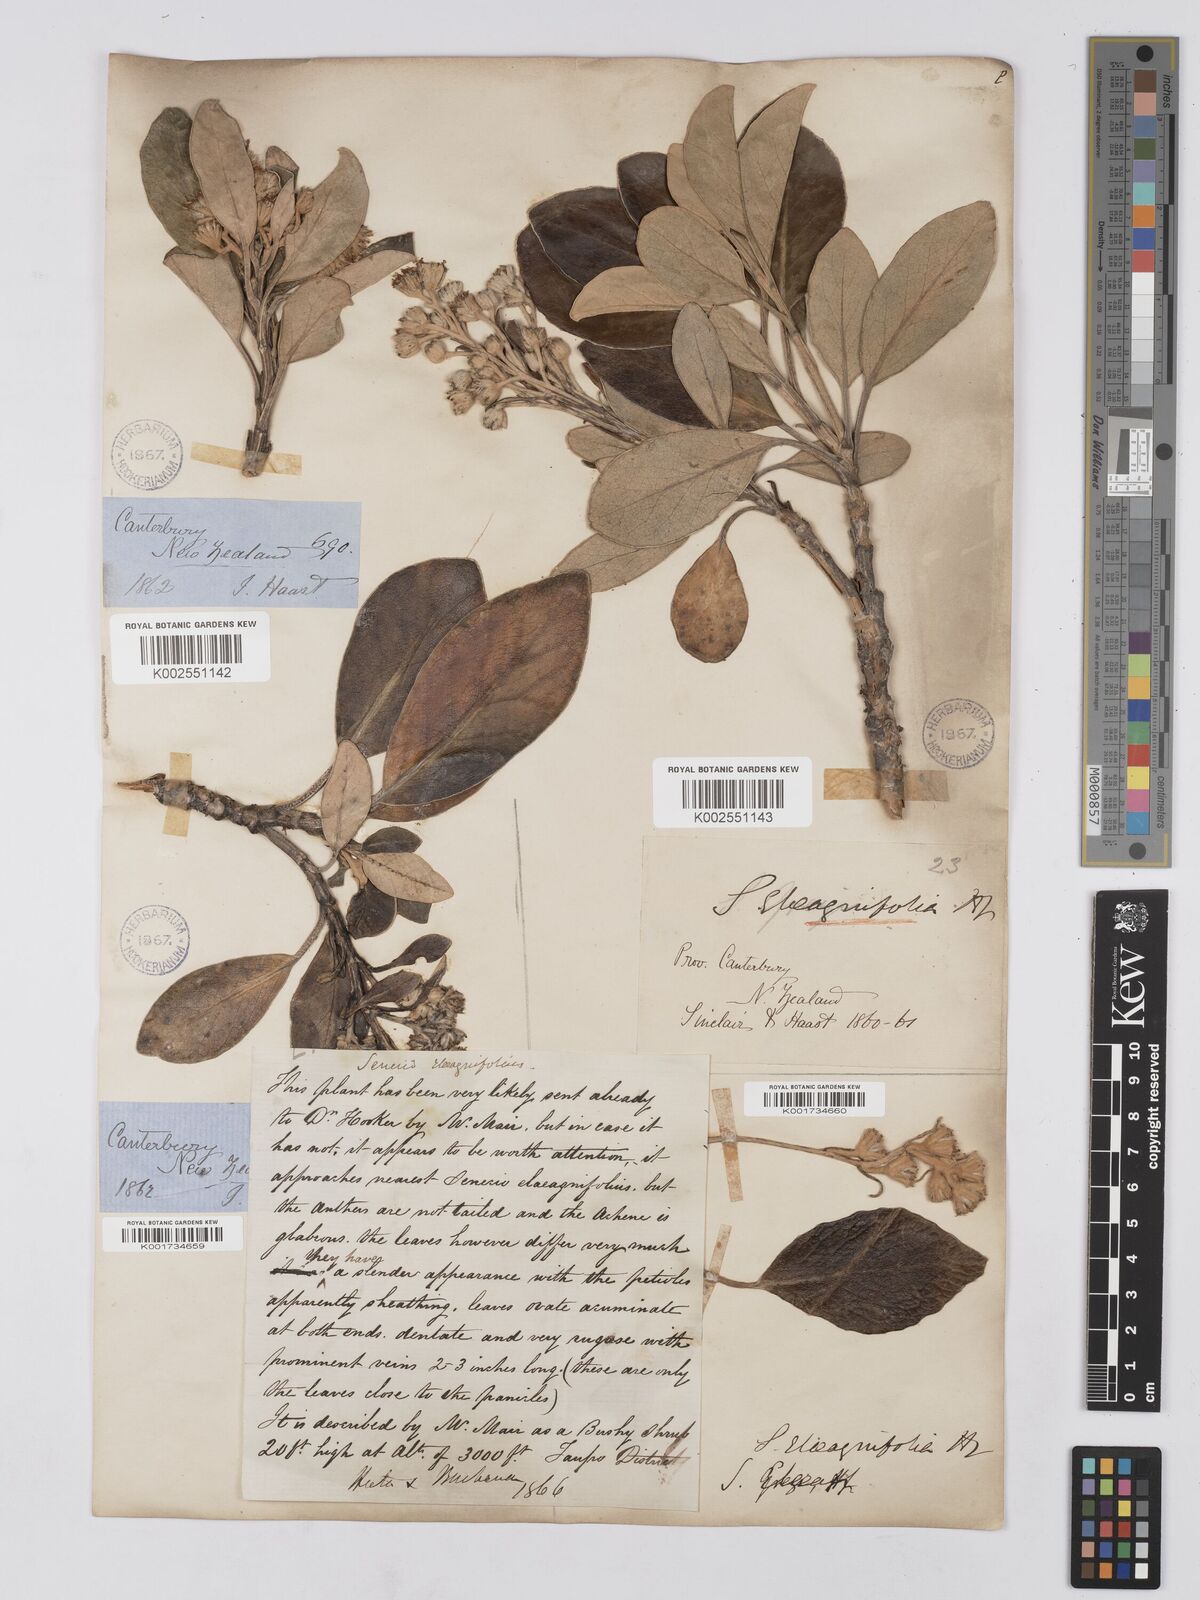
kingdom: Plantae
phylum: Tracheophyta
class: Magnoliopsida
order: Asterales
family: Asteraceae
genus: Brachyglottis
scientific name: Brachyglottis buchananii
